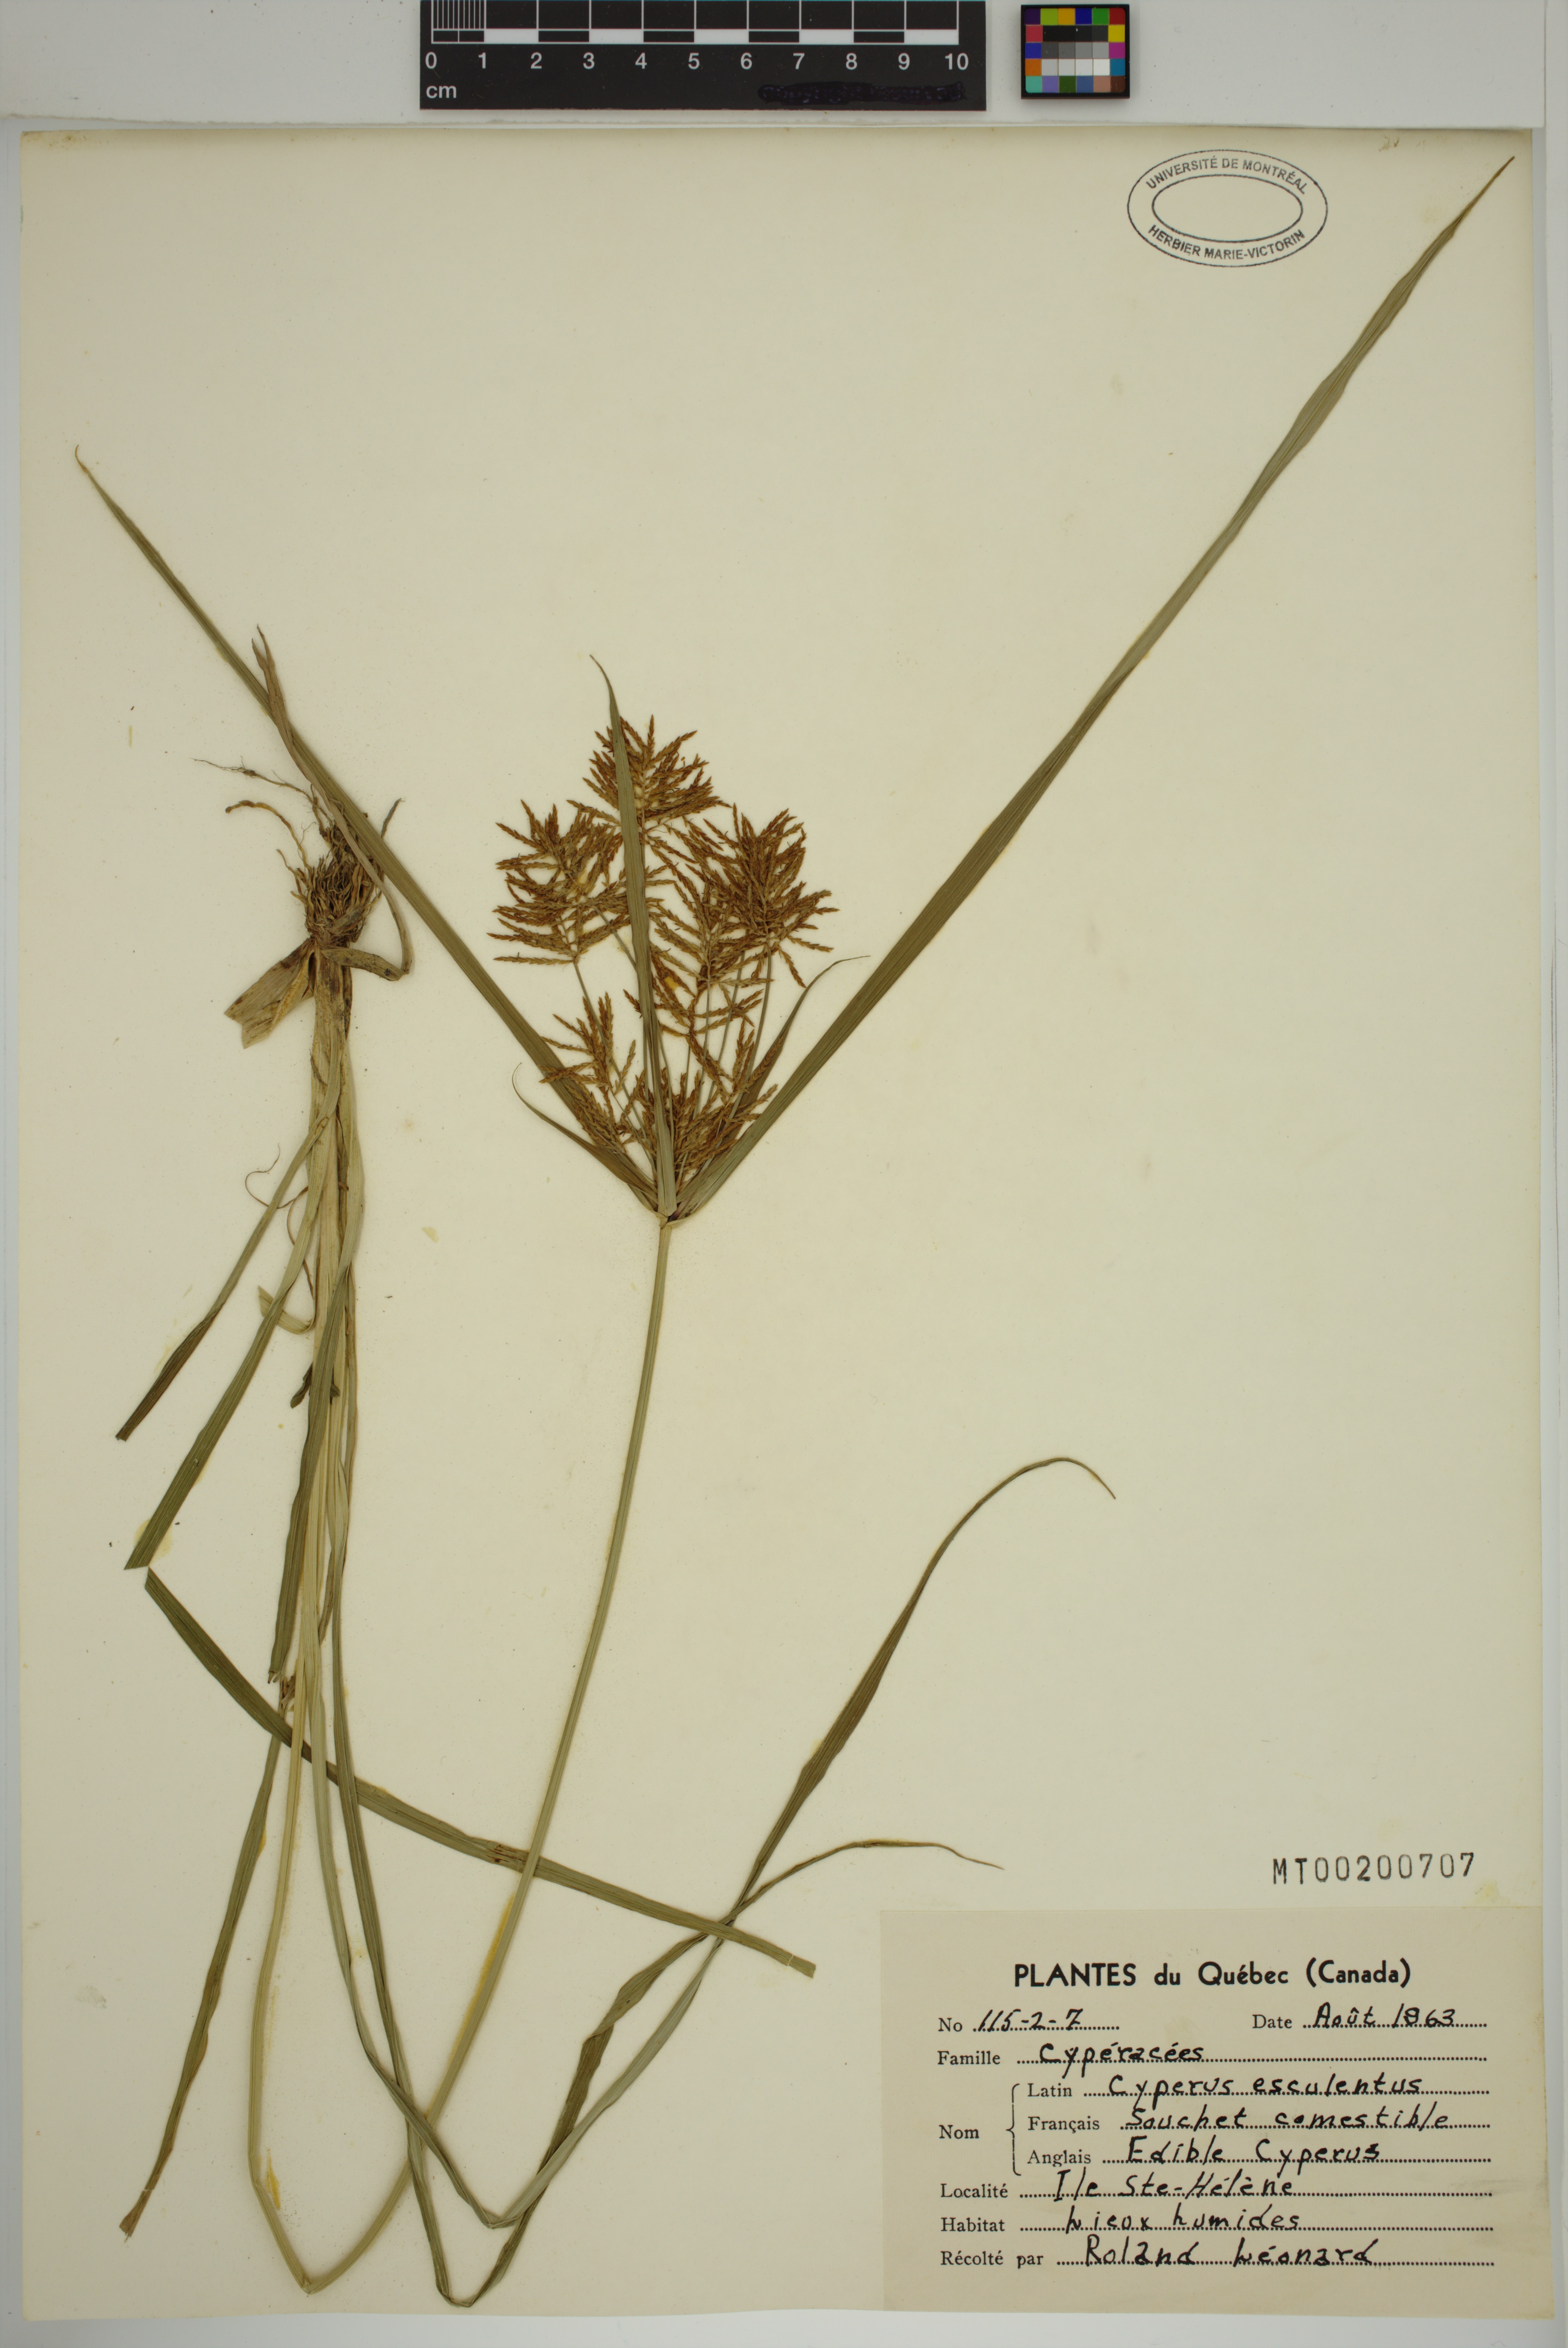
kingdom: Plantae
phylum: Tracheophyta
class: Liliopsida
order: Poales
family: Cyperaceae
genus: Cyperus
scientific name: Cyperus esculentus
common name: Yellow nutsedge
